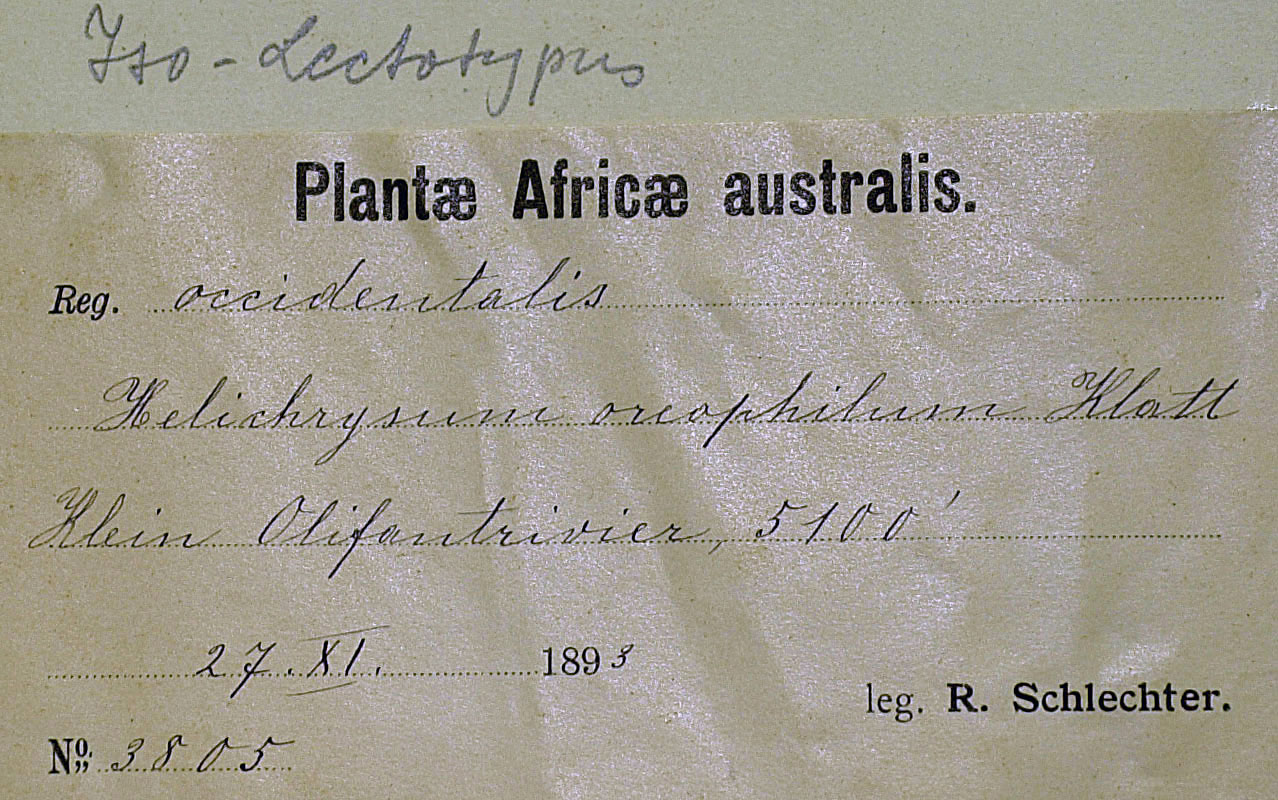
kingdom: Plantae
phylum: Tracheophyta
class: Magnoliopsida
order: Asterales
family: Asteraceae
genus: Helichrysum
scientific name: Helichrysum oreophilum
